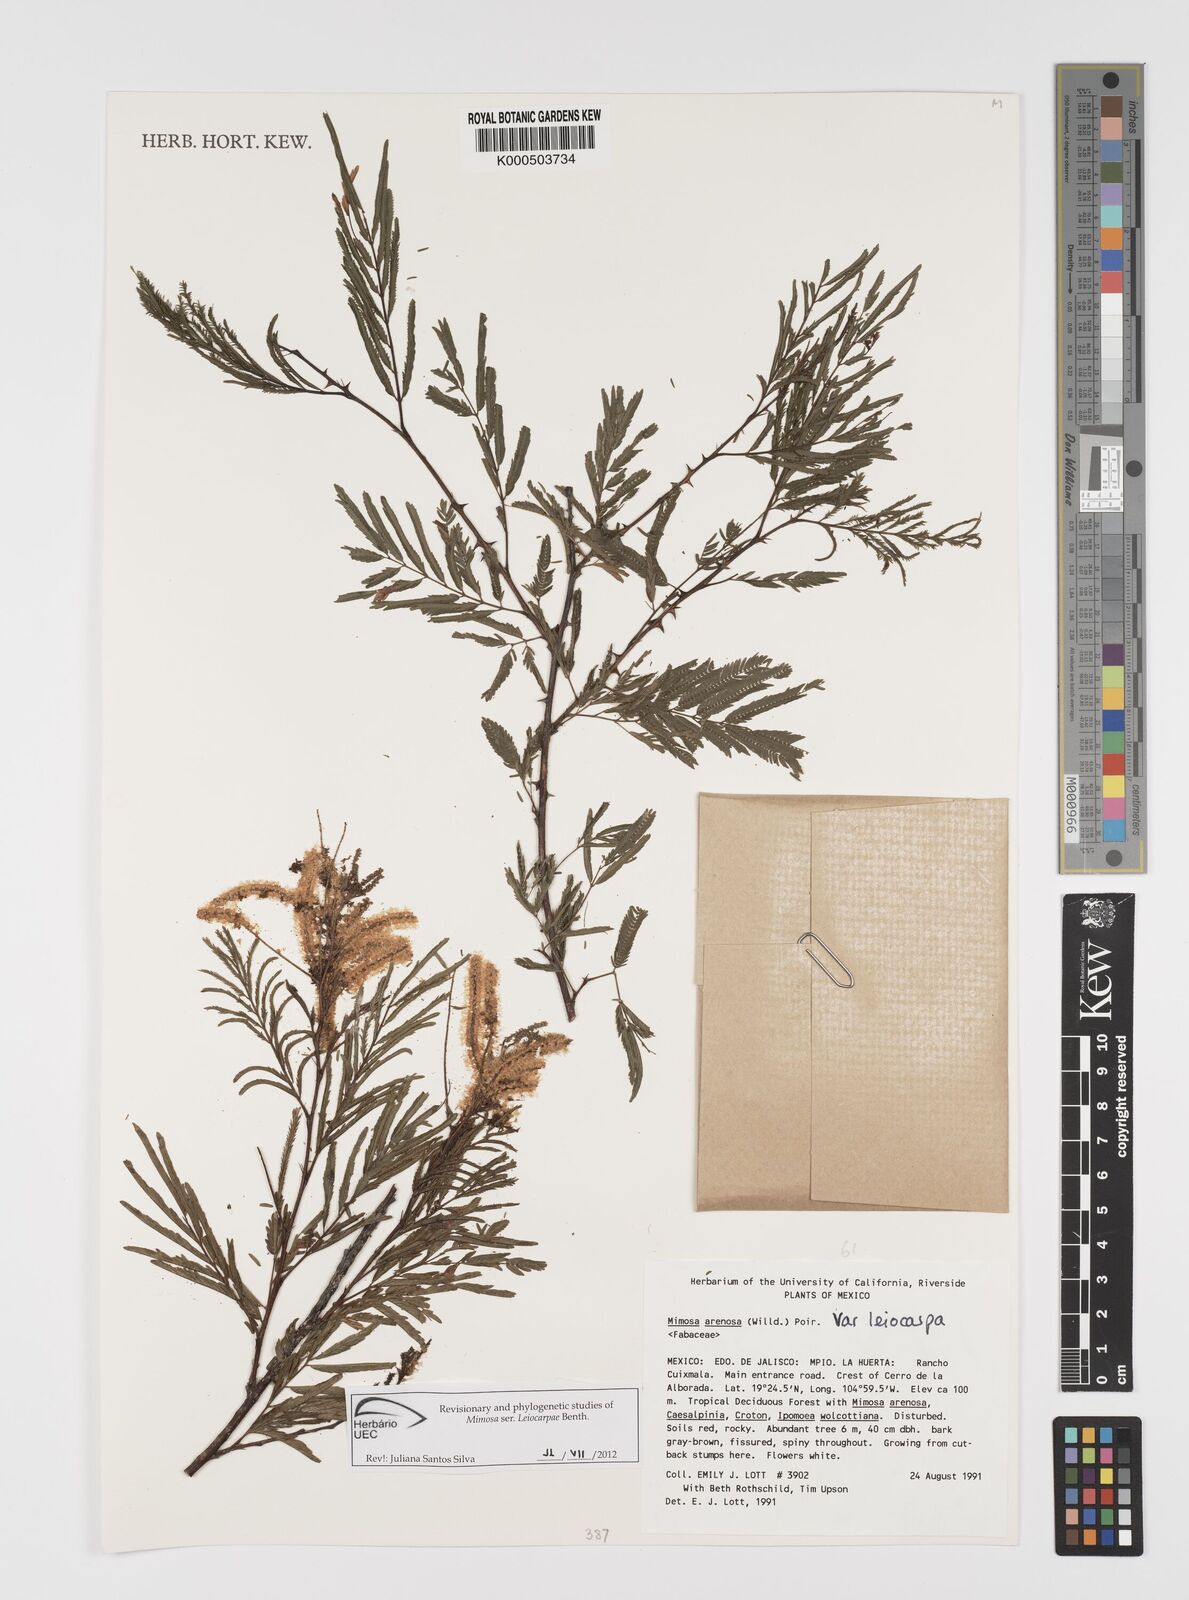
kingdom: Plantae
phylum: Tracheophyta
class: Magnoliopsida
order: Fabales
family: Fabaceae
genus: Mimosa
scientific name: Mimosa arenosa
